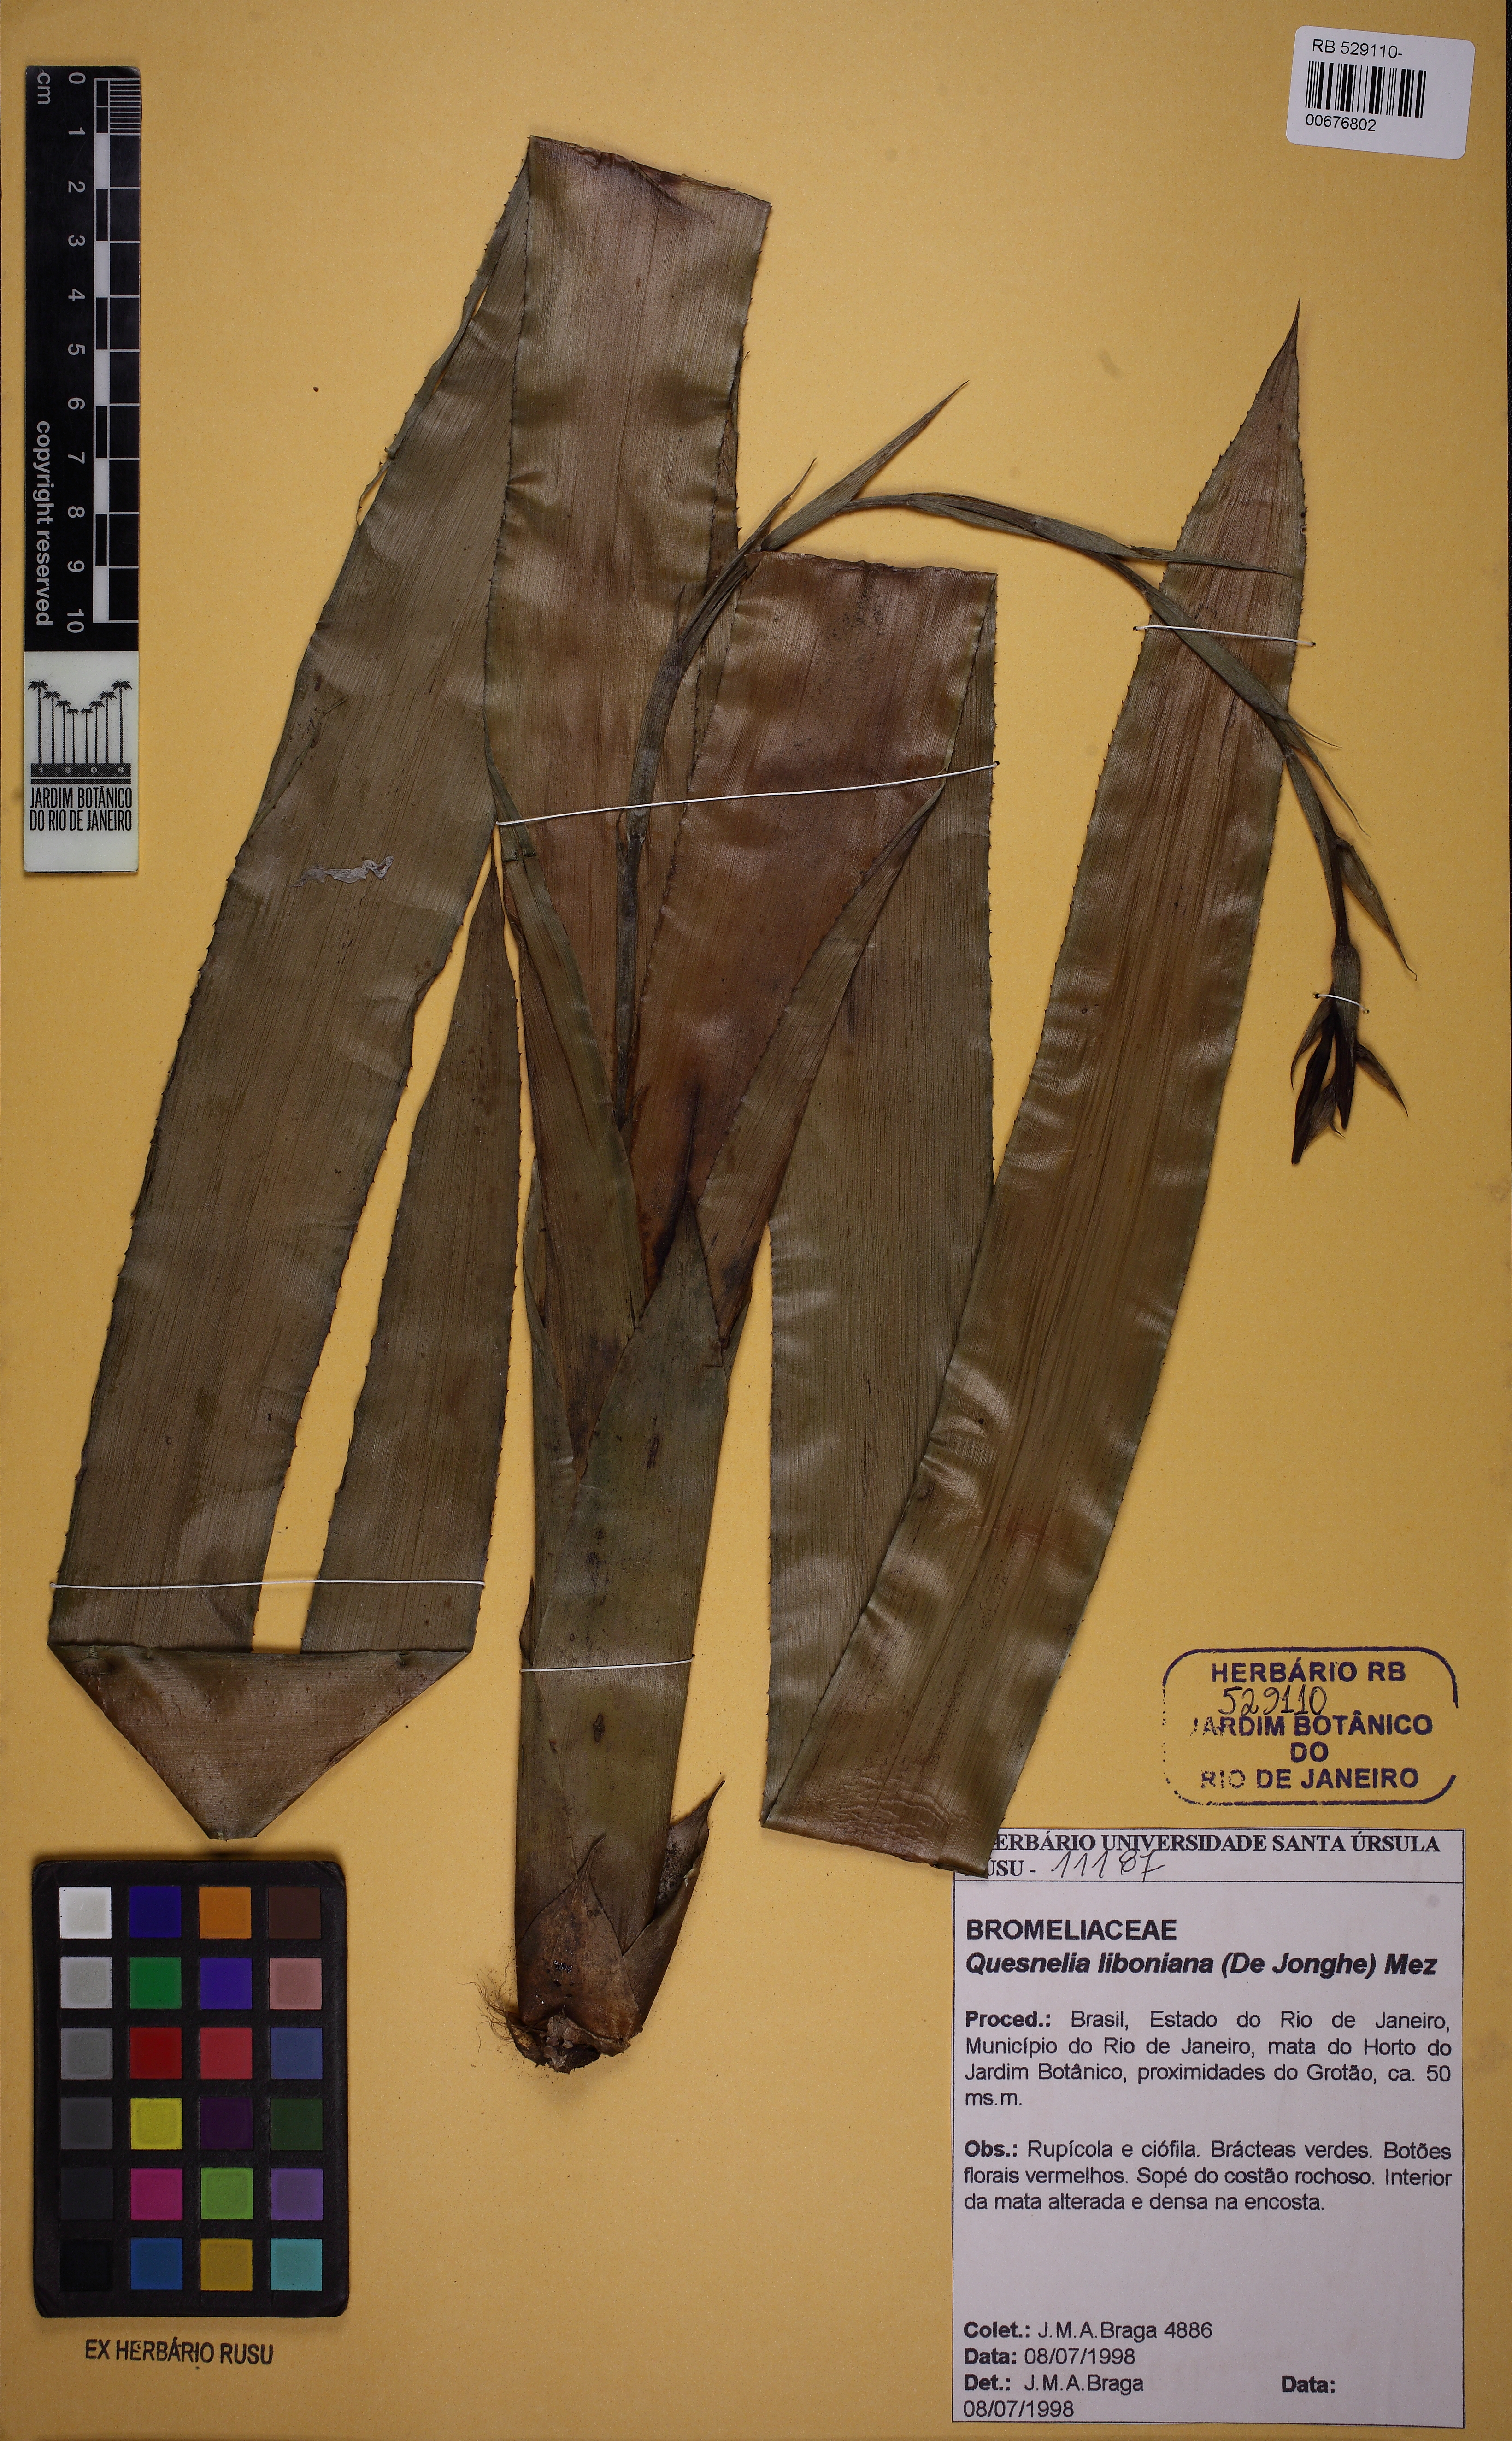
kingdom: Plantae
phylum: Tracheophyta
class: Liliopsida
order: Poales
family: Bromeliaceae
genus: Quesnelia
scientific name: Quesnelia liboniana
